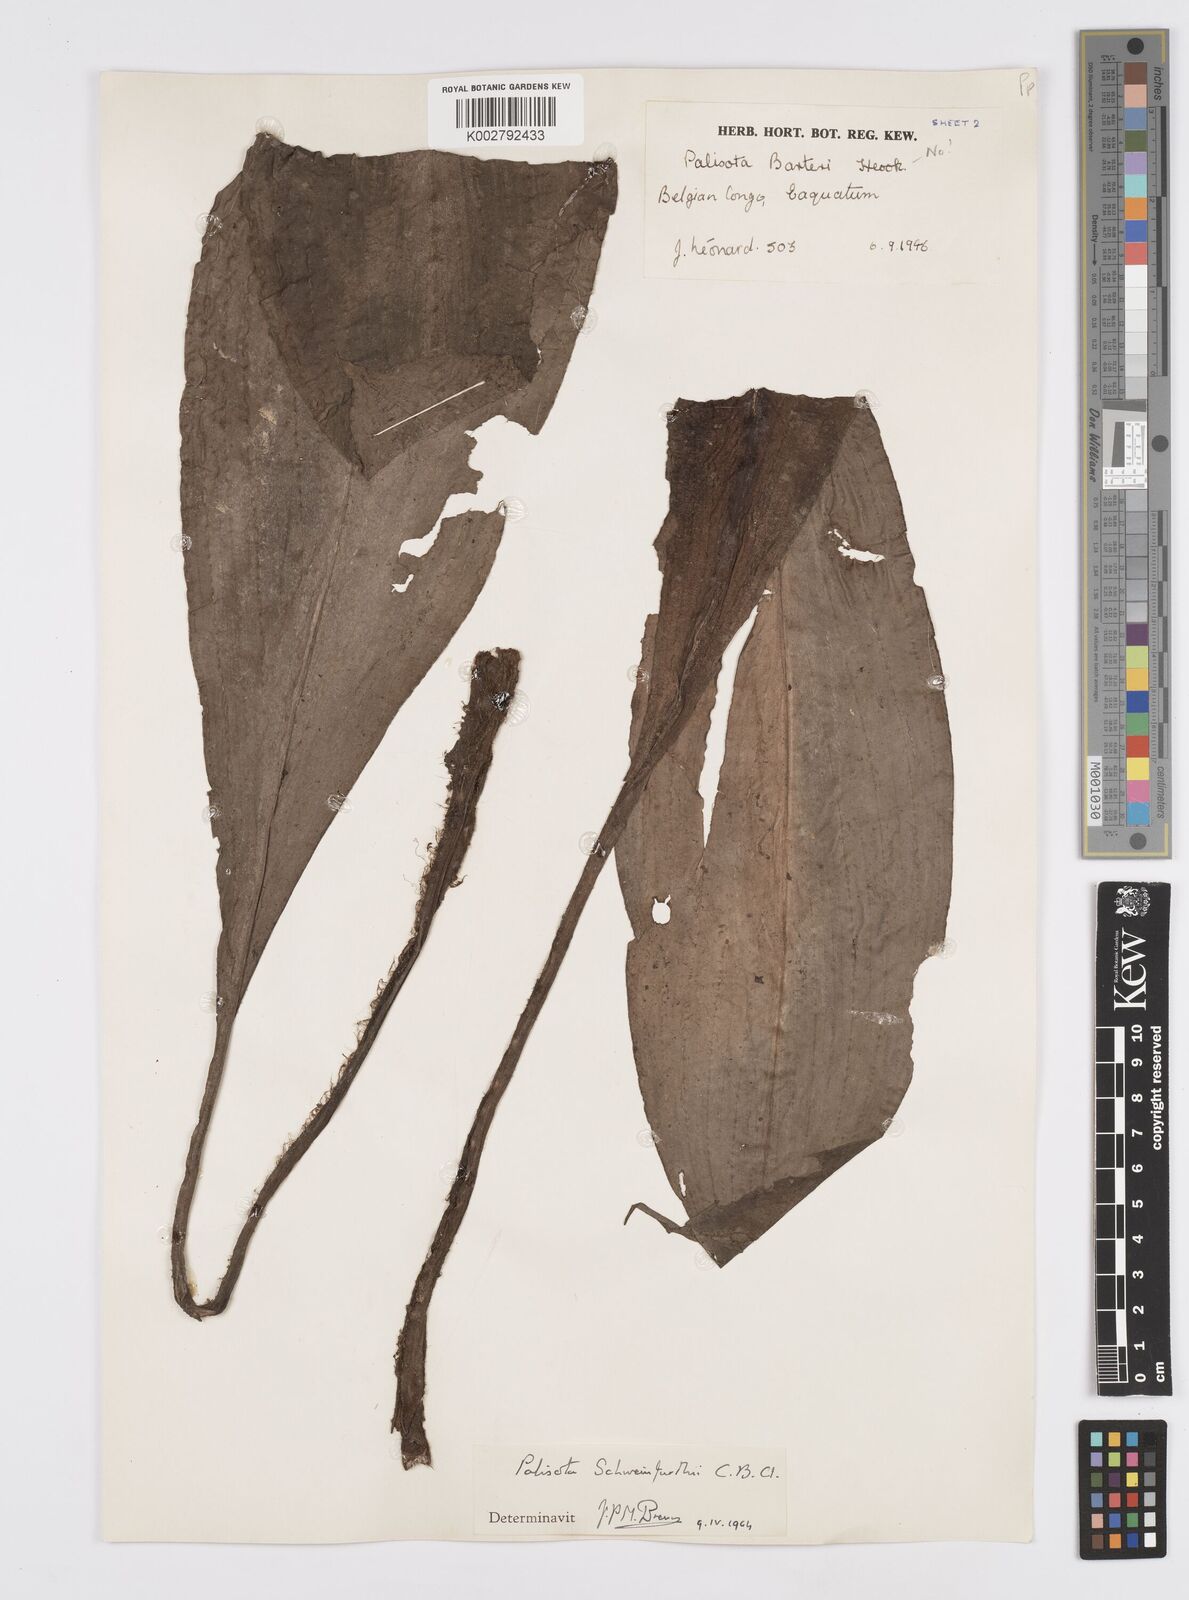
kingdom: Plantae
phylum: Tracheophyta
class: Liliopsida
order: Commelinales
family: Commelinaceae
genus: Palisota
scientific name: Palisota schweinfurthii
